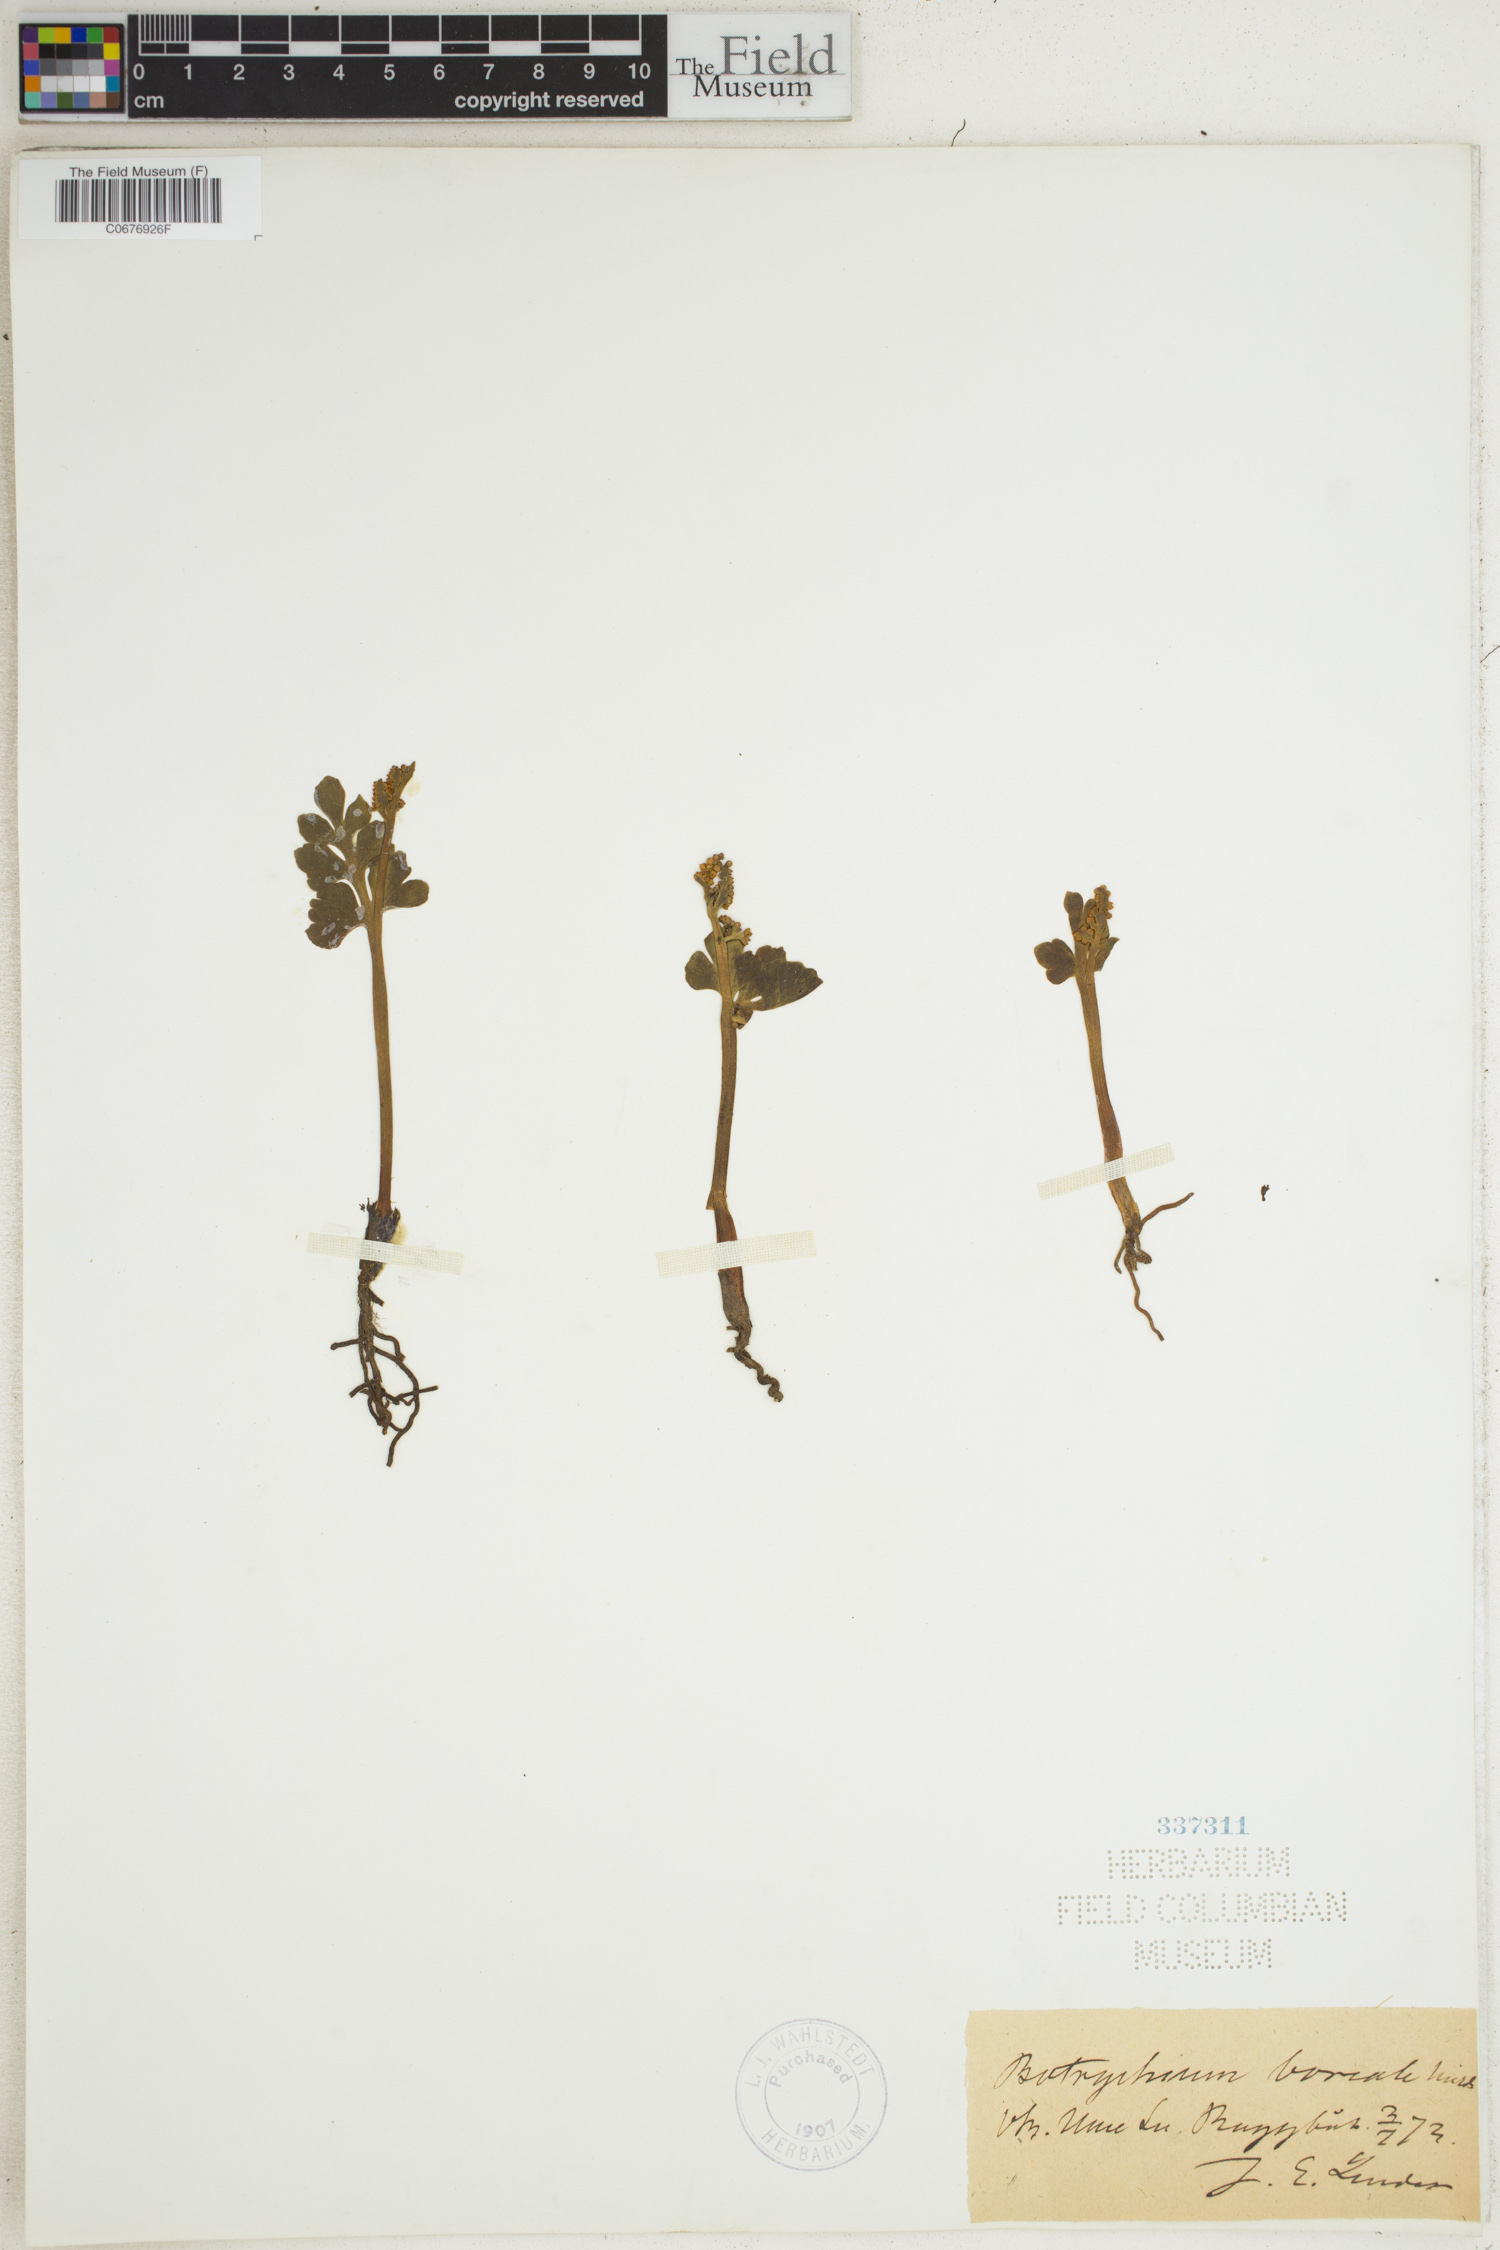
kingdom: Plantae
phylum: Tracheophyta
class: Polypodiopsida
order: Ophioglossales
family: Ophioglossaceae
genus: Botrychium
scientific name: Botrychium boreale
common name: Boreal moonwort
